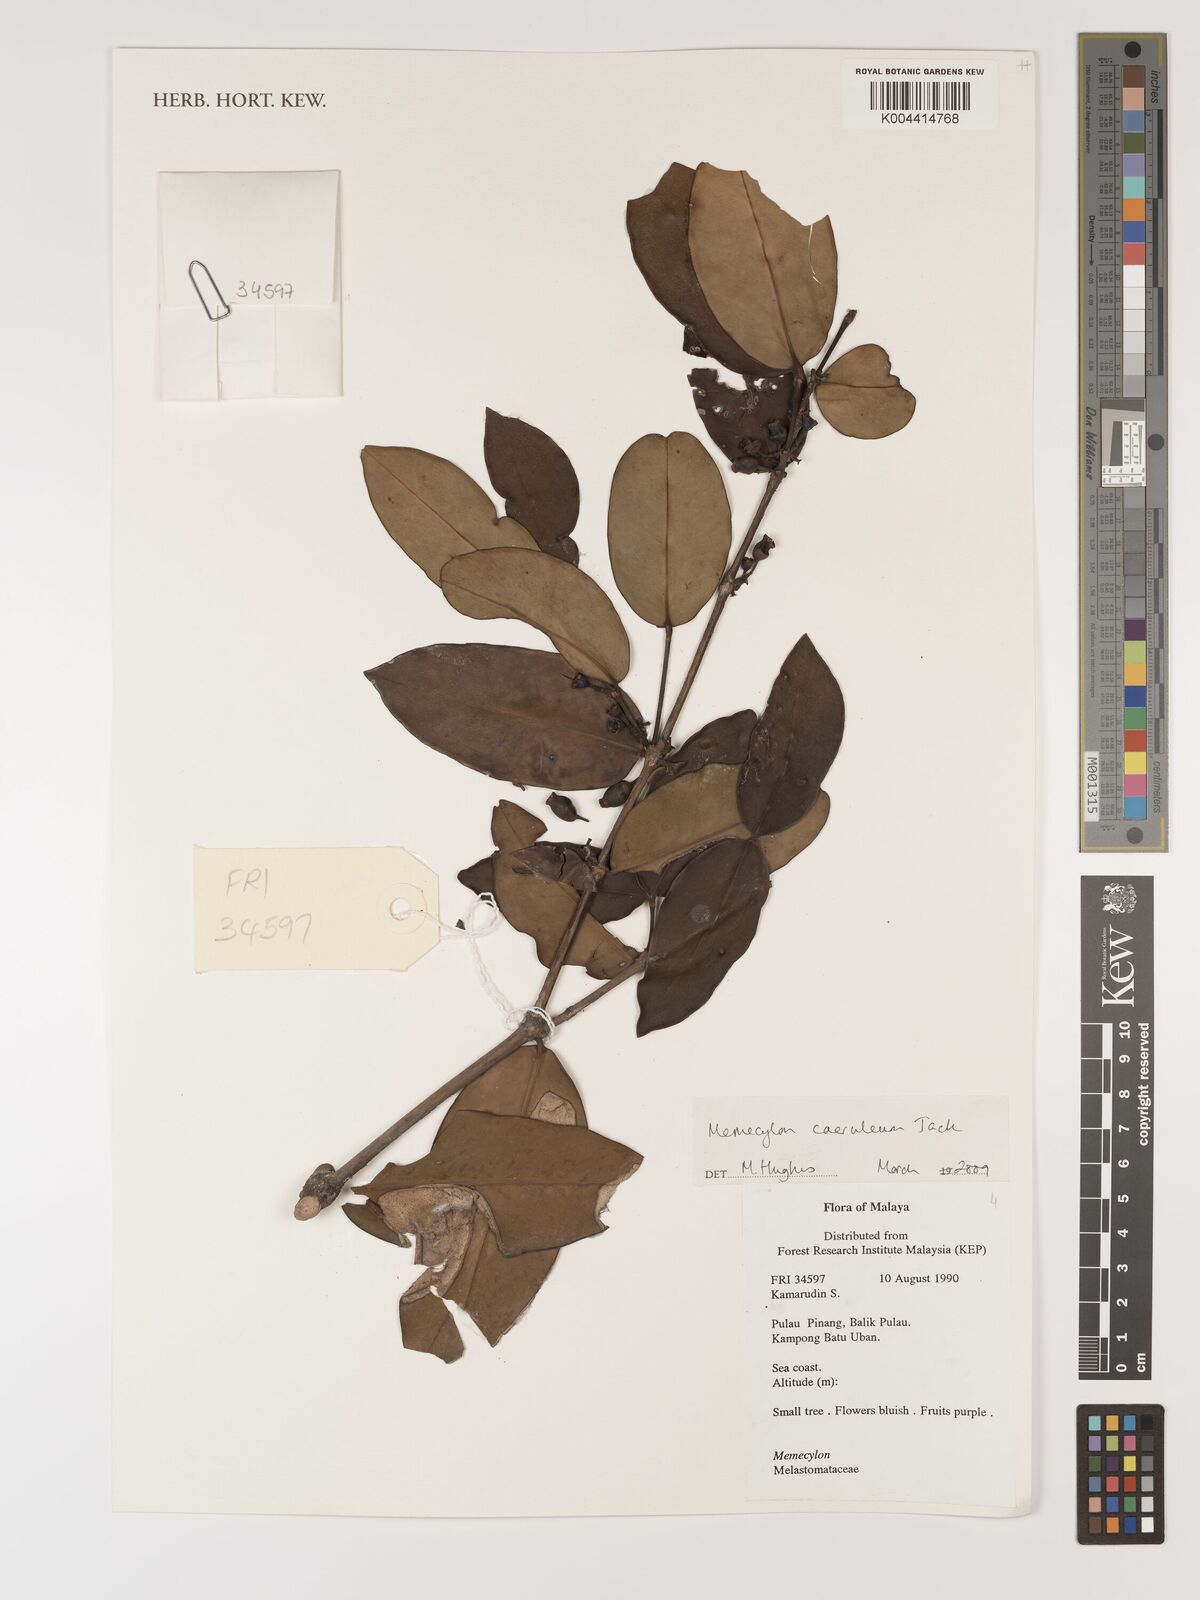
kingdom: Plantae
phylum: Tracheophyta
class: Magnoliopsida
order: Myrtales
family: Melastomataceae
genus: Memecylon
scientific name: Memecylon
